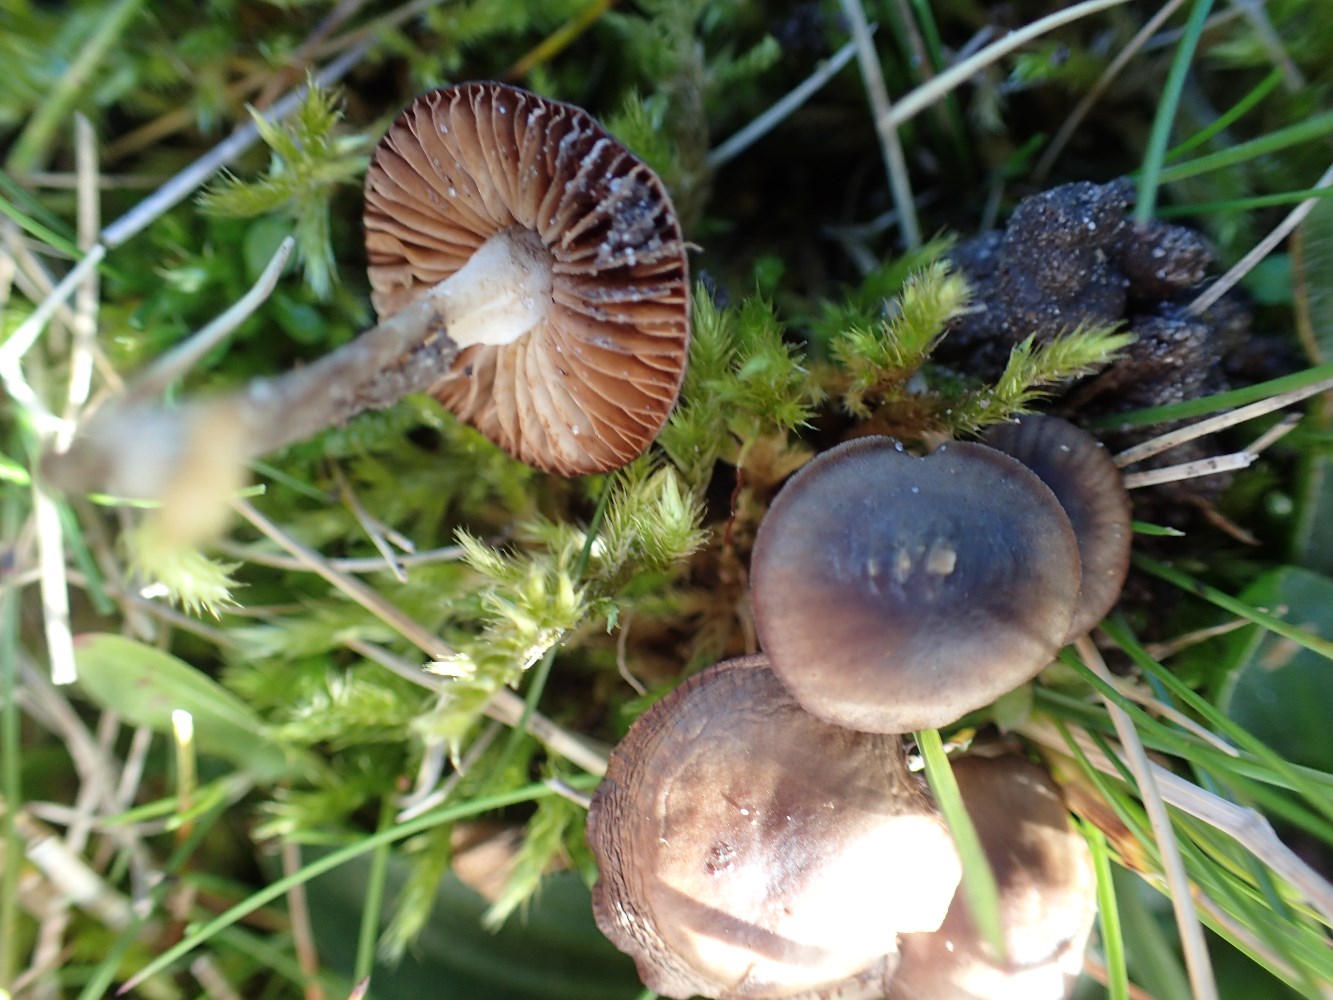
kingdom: Fungi
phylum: Basidiomycota
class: Agaricomycetes
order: Agaricales
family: Tricholomataceae
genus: Mycenella
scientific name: Mycenella salicina
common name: glatsporet dughat
